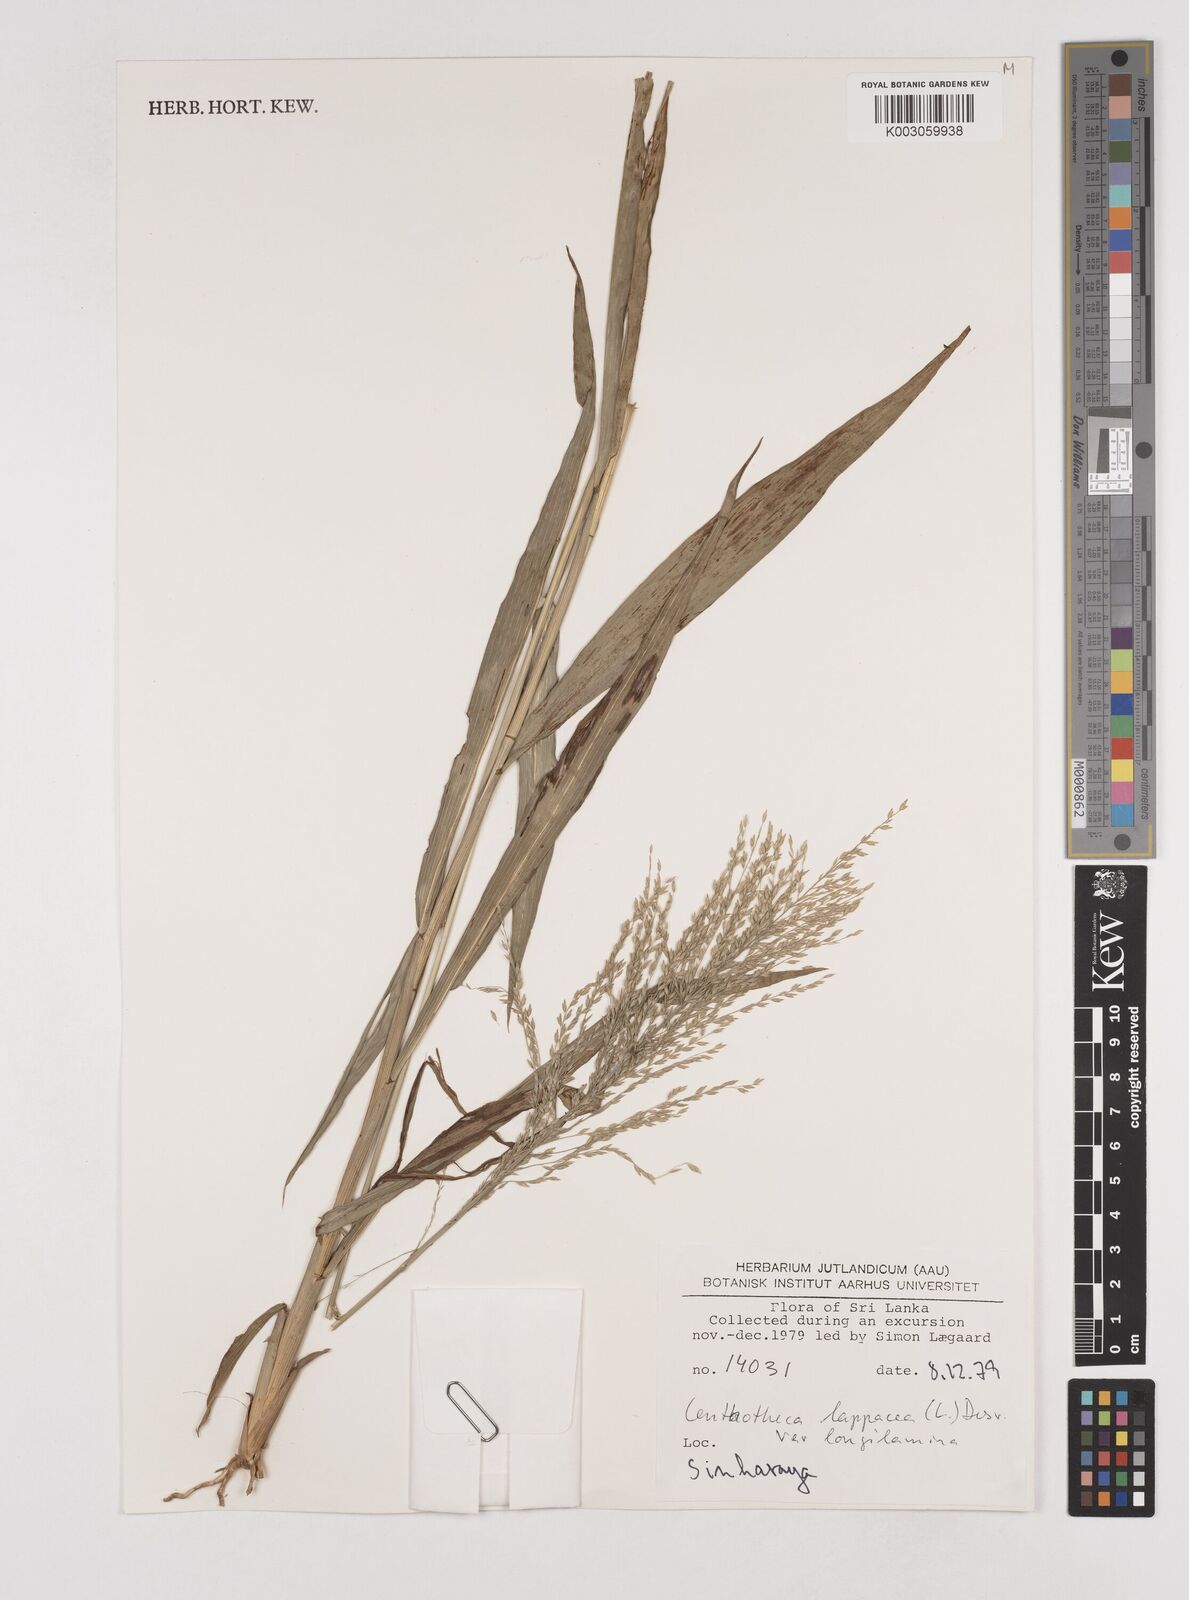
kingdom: Plantae
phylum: Tracheophyta
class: Liliopsida
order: Poales
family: Poaceae
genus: Centotheca
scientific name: Centotheca lappacea
